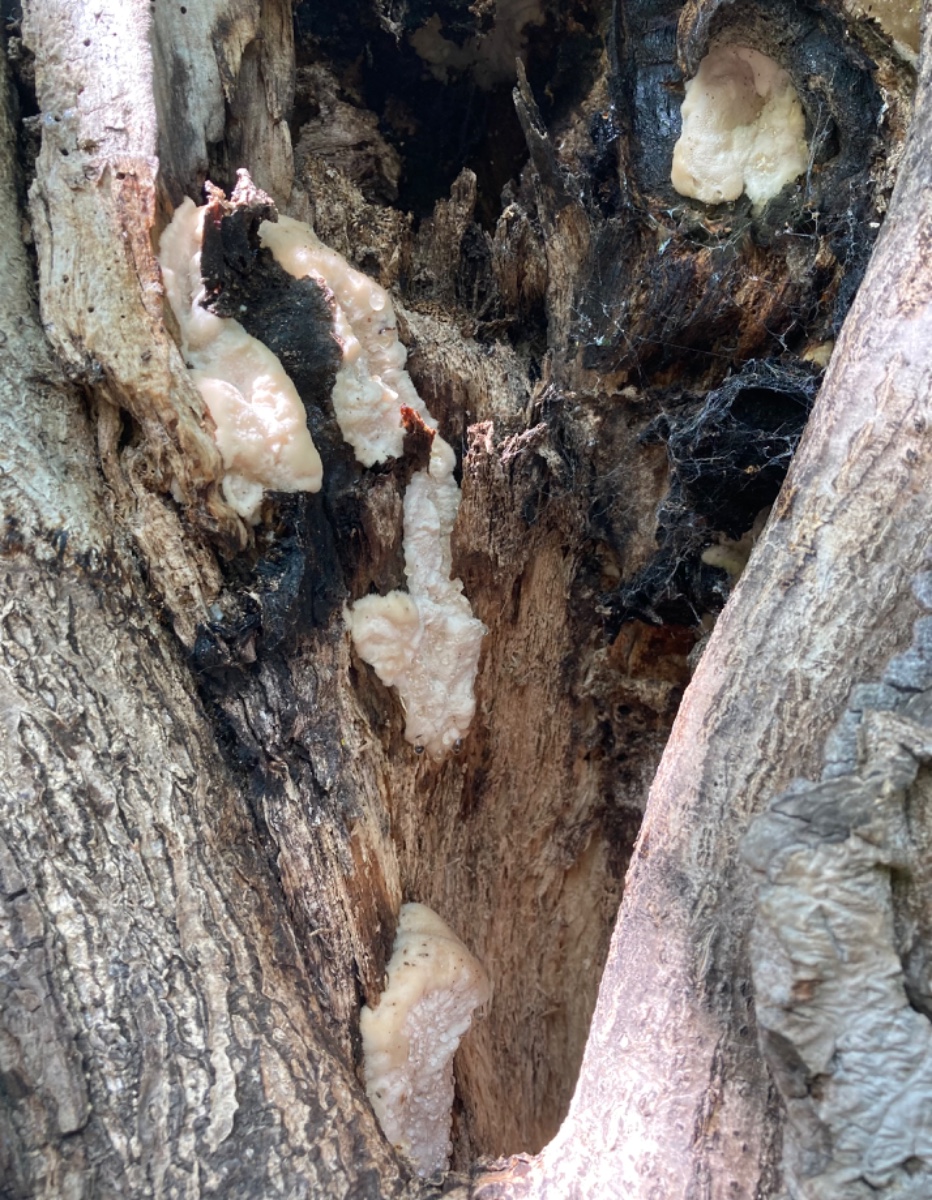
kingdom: Fungi
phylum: Basidiomycota
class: Agaricomycetes
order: Polyporales
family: Meruliaceae
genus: Pappia
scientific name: Pappia fissilis
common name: sej fedtporesvamp
